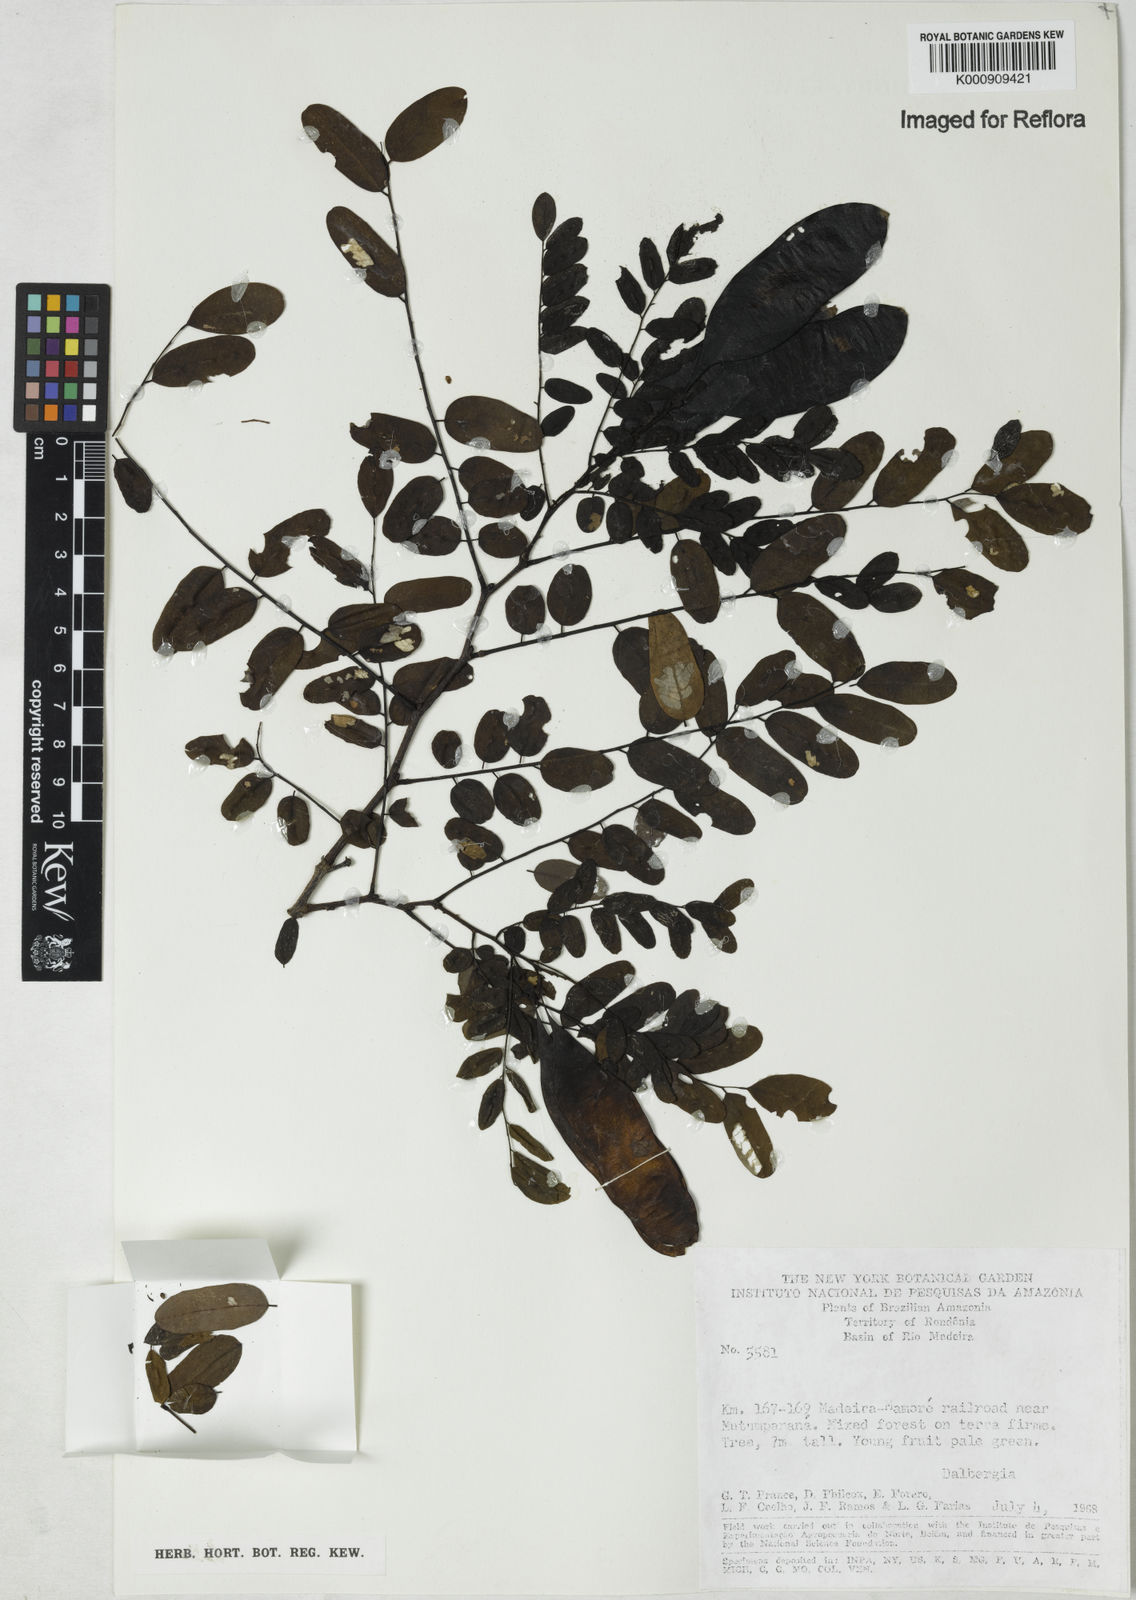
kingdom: Plantae
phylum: Tracheophyta
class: Magnoliopsida
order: Fabales
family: Fabaceae
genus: Dalbergia
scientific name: Dalbergia
